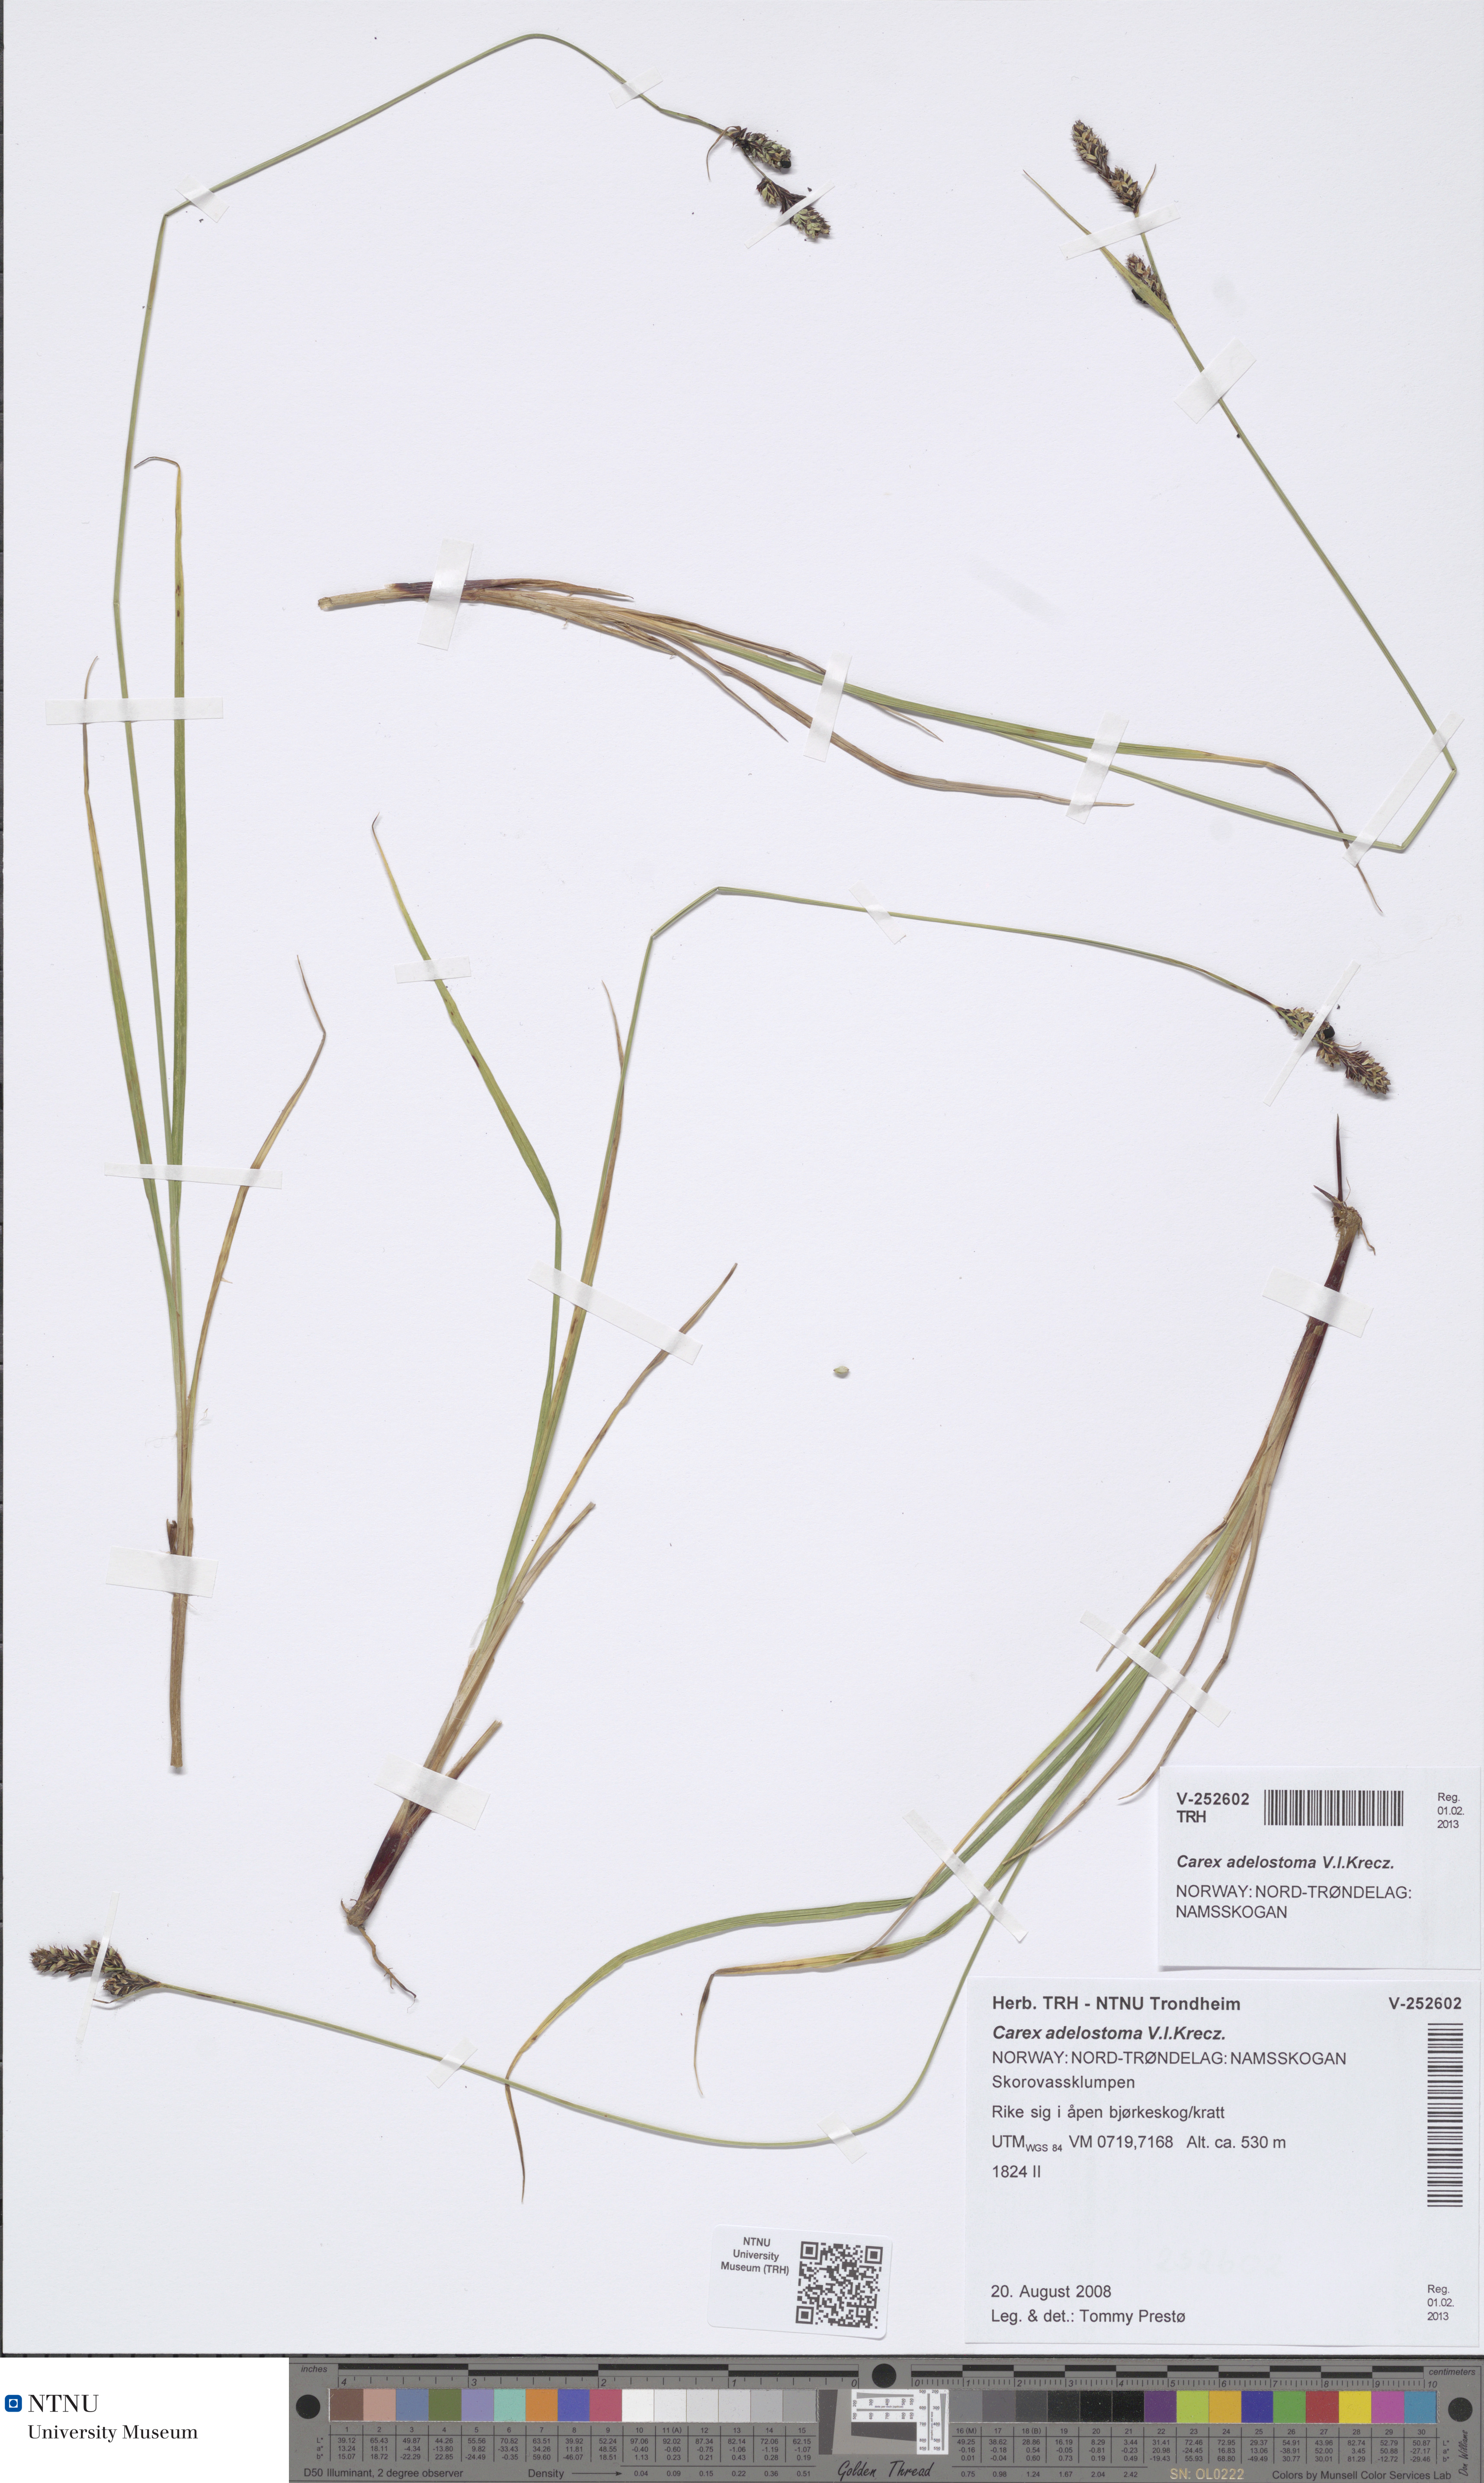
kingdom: Plantae
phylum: Tracheophyta
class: Liliopsida
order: Poales
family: Cyperaceae
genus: Carex
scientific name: Carex adelostoma
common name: Circumpolar sedge
